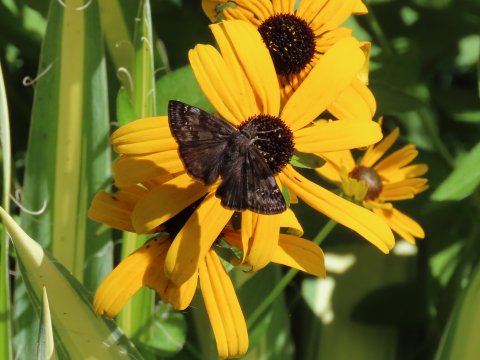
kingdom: Animalia
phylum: Arthropoda
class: Insecta
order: Lepidoptera
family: Hesperiidae
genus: Gesta
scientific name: Gesta
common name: Wild Indigo Duskywing
